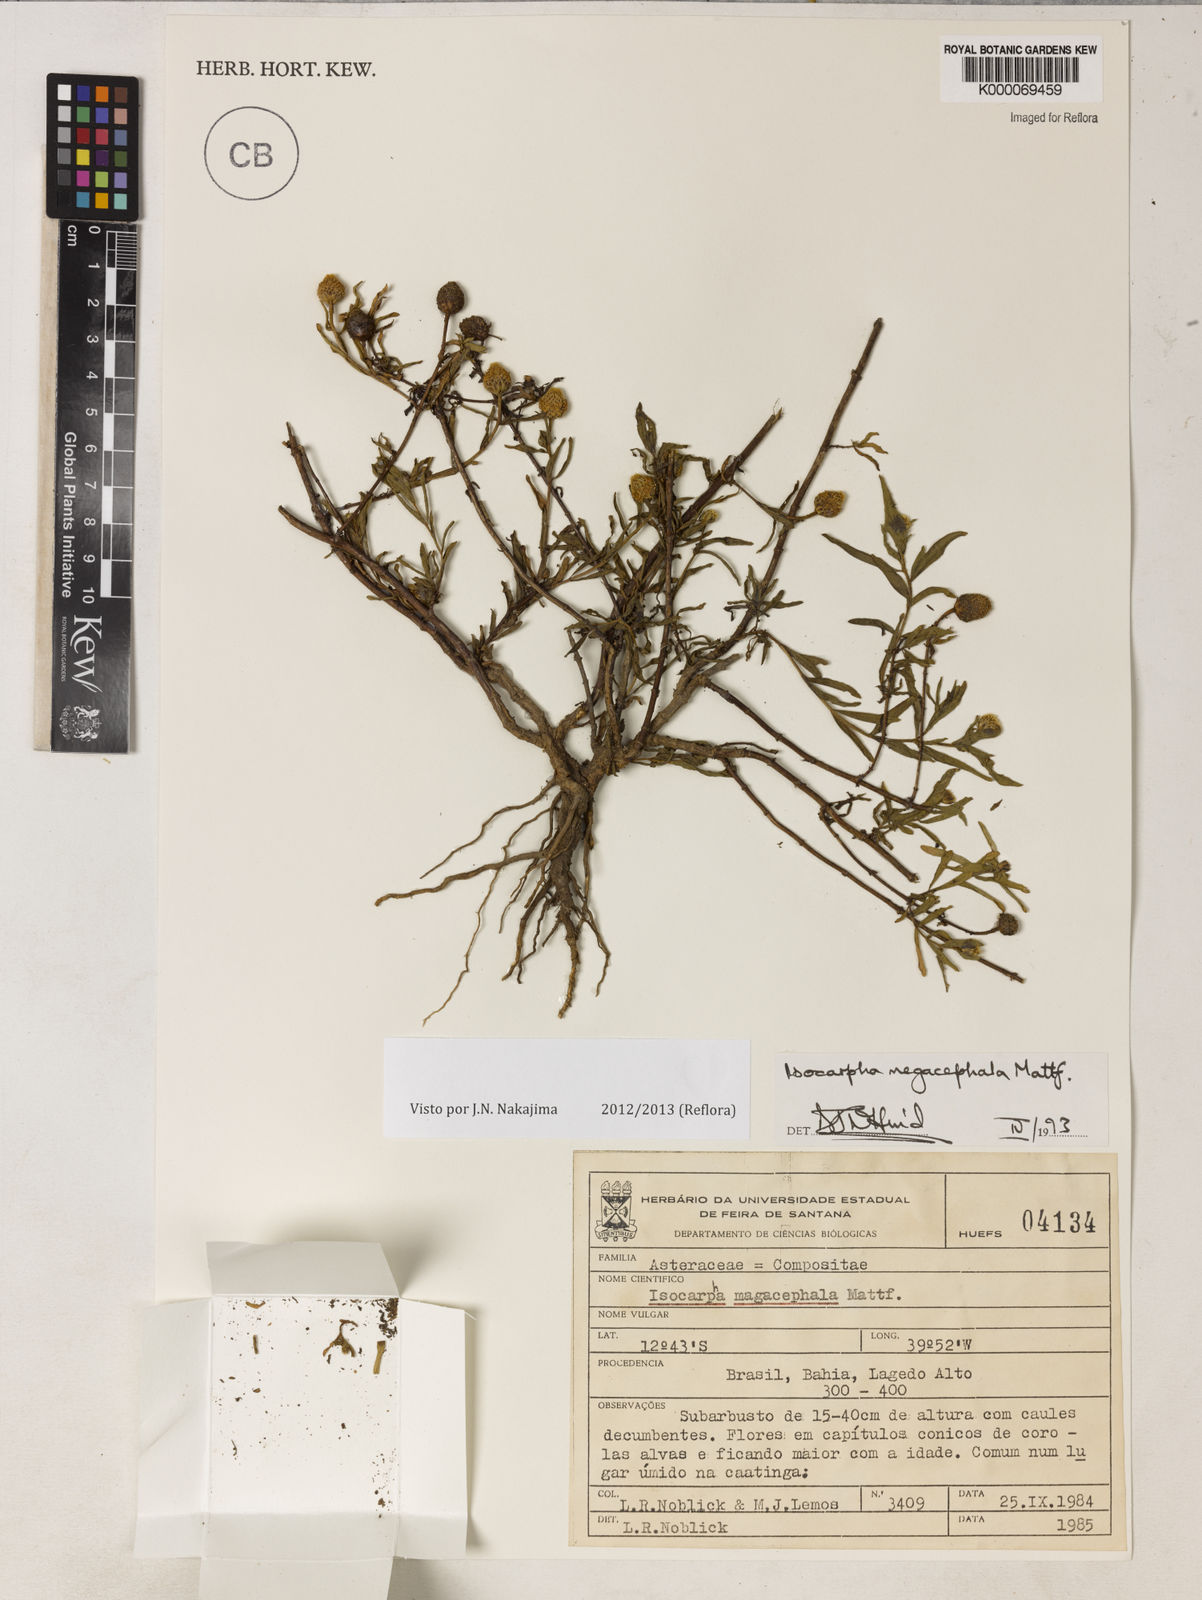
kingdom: Plantae
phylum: Tracheophyta
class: Magnoliopsida
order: Asterales
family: Asteraceae
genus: Isocarpha
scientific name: Isocarpha megacephala
